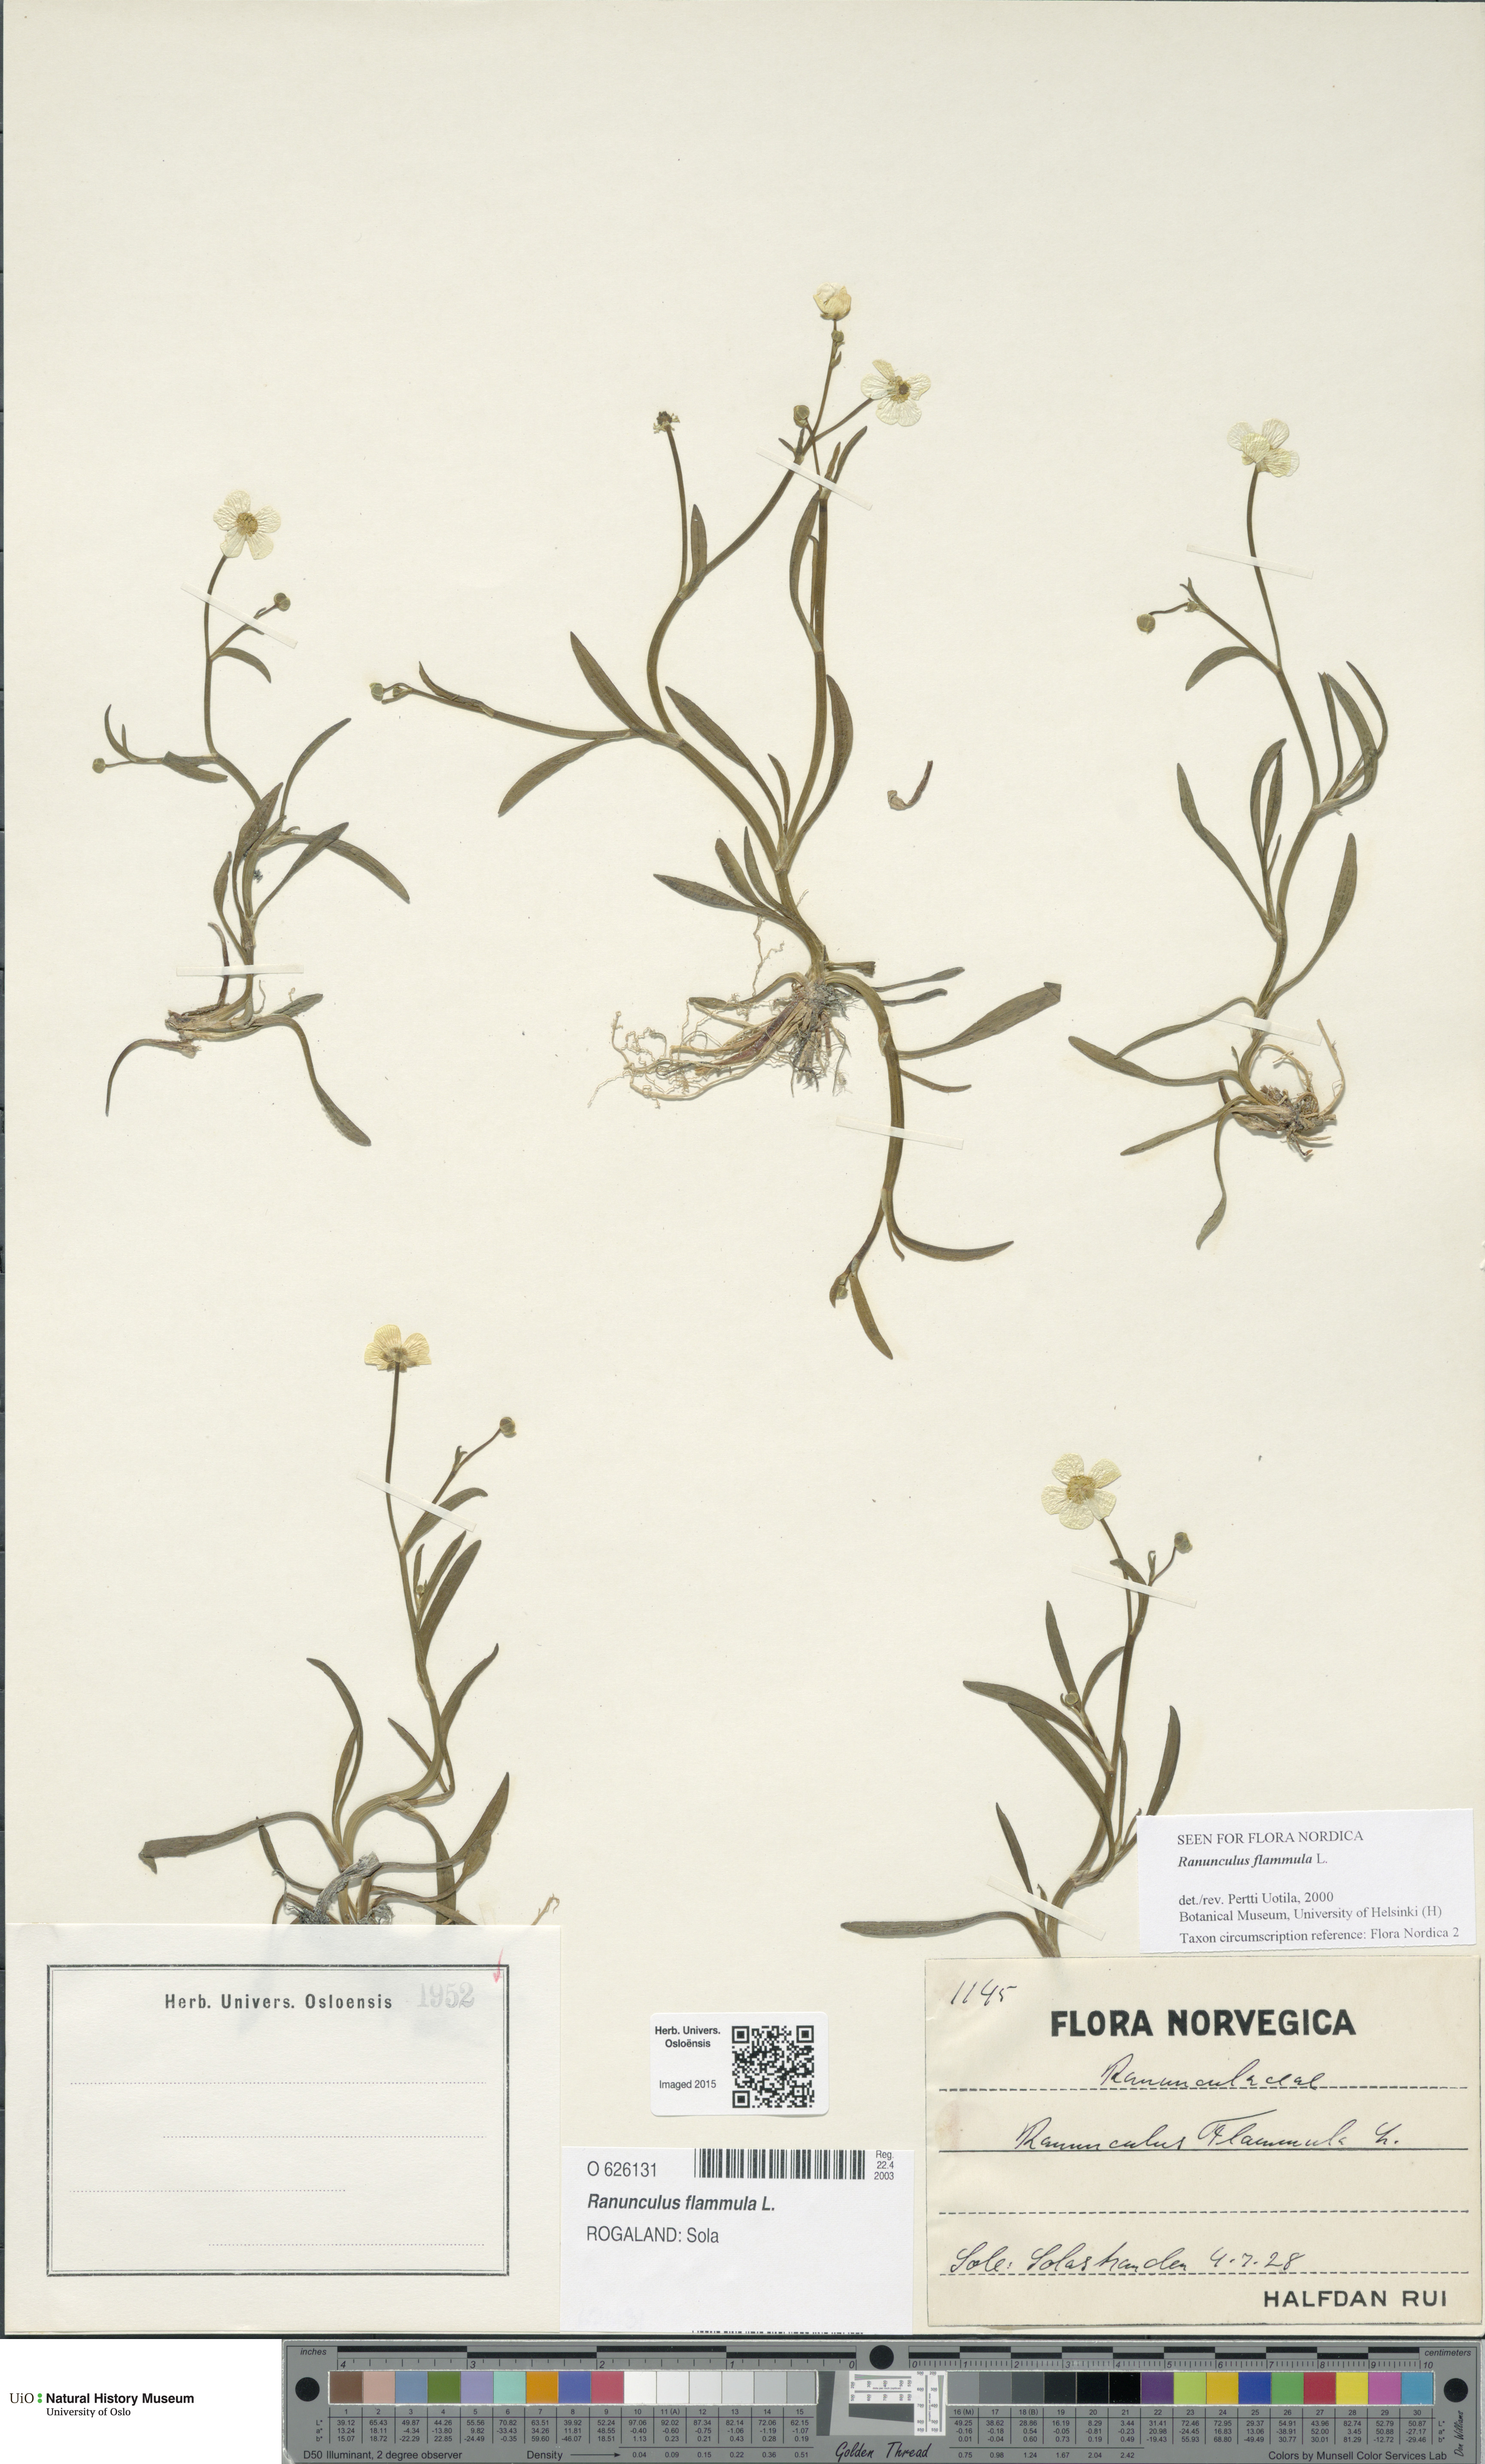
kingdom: Plantae
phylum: Tracheophyta
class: Magnoliopsida
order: Ranunculales
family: Ranunculaceae
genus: Ranunculus
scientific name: Ranunculus flammula
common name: Lesser spearwort
